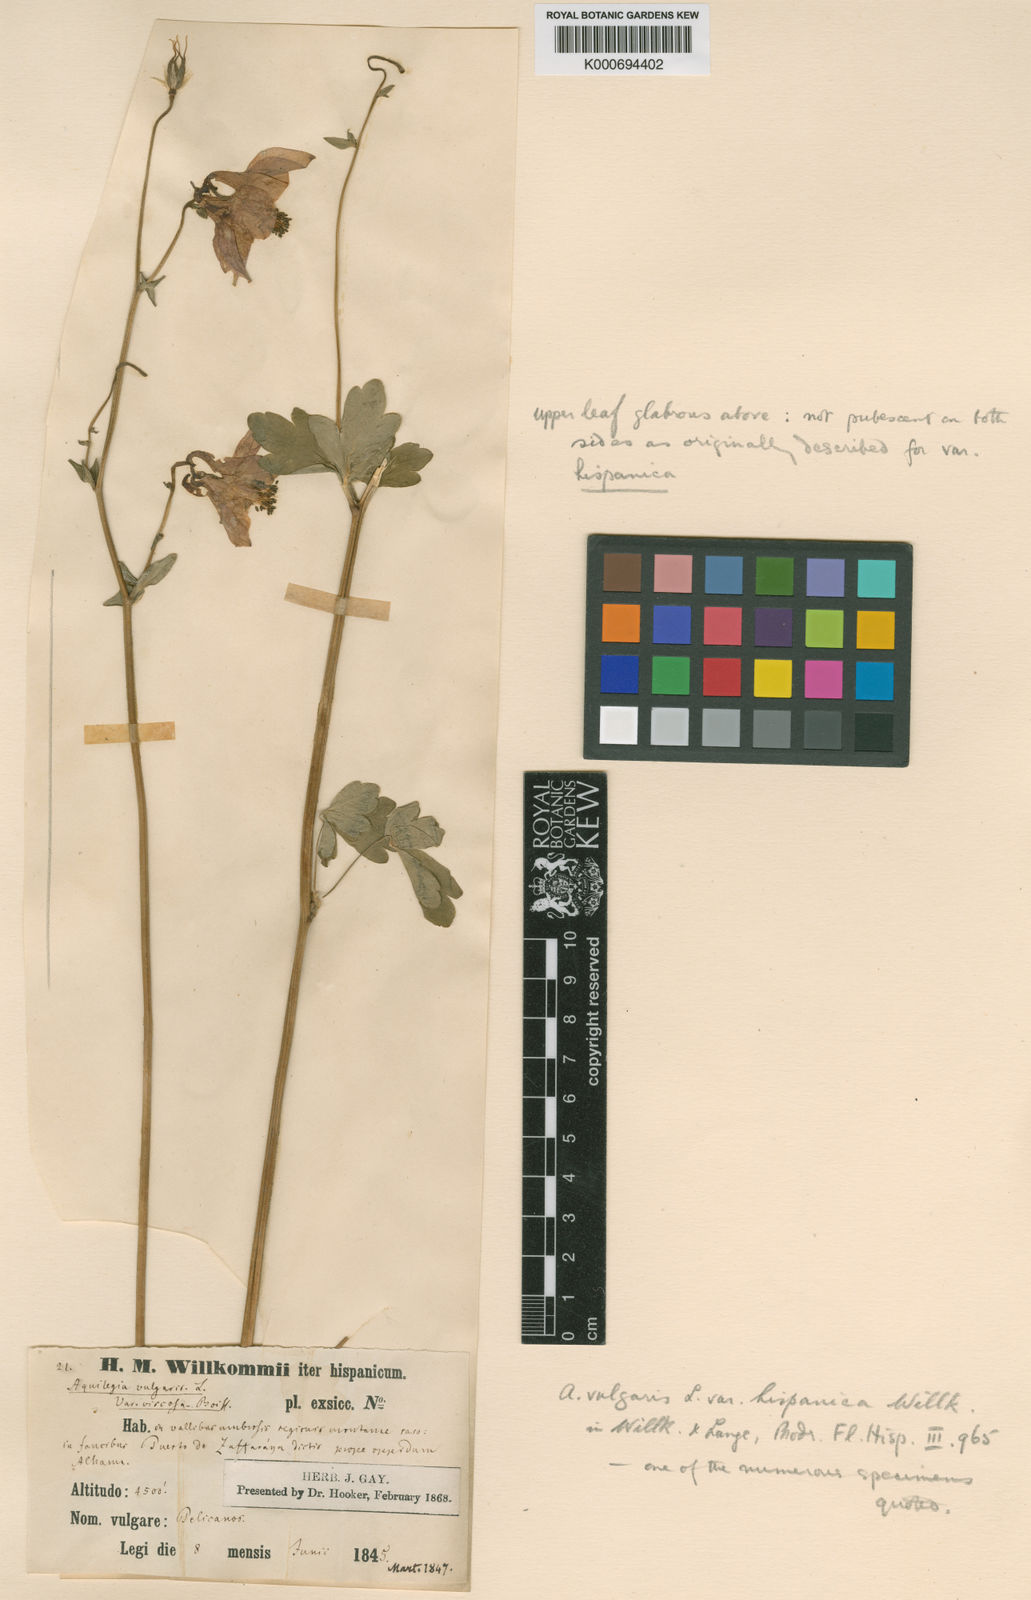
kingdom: Plantae
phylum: Tracheophyta
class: Magnoliopsida
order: Ranunculales
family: Ranunculaceae
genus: Aquilegia
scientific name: Aquilegia vulgaris
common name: Columbine
